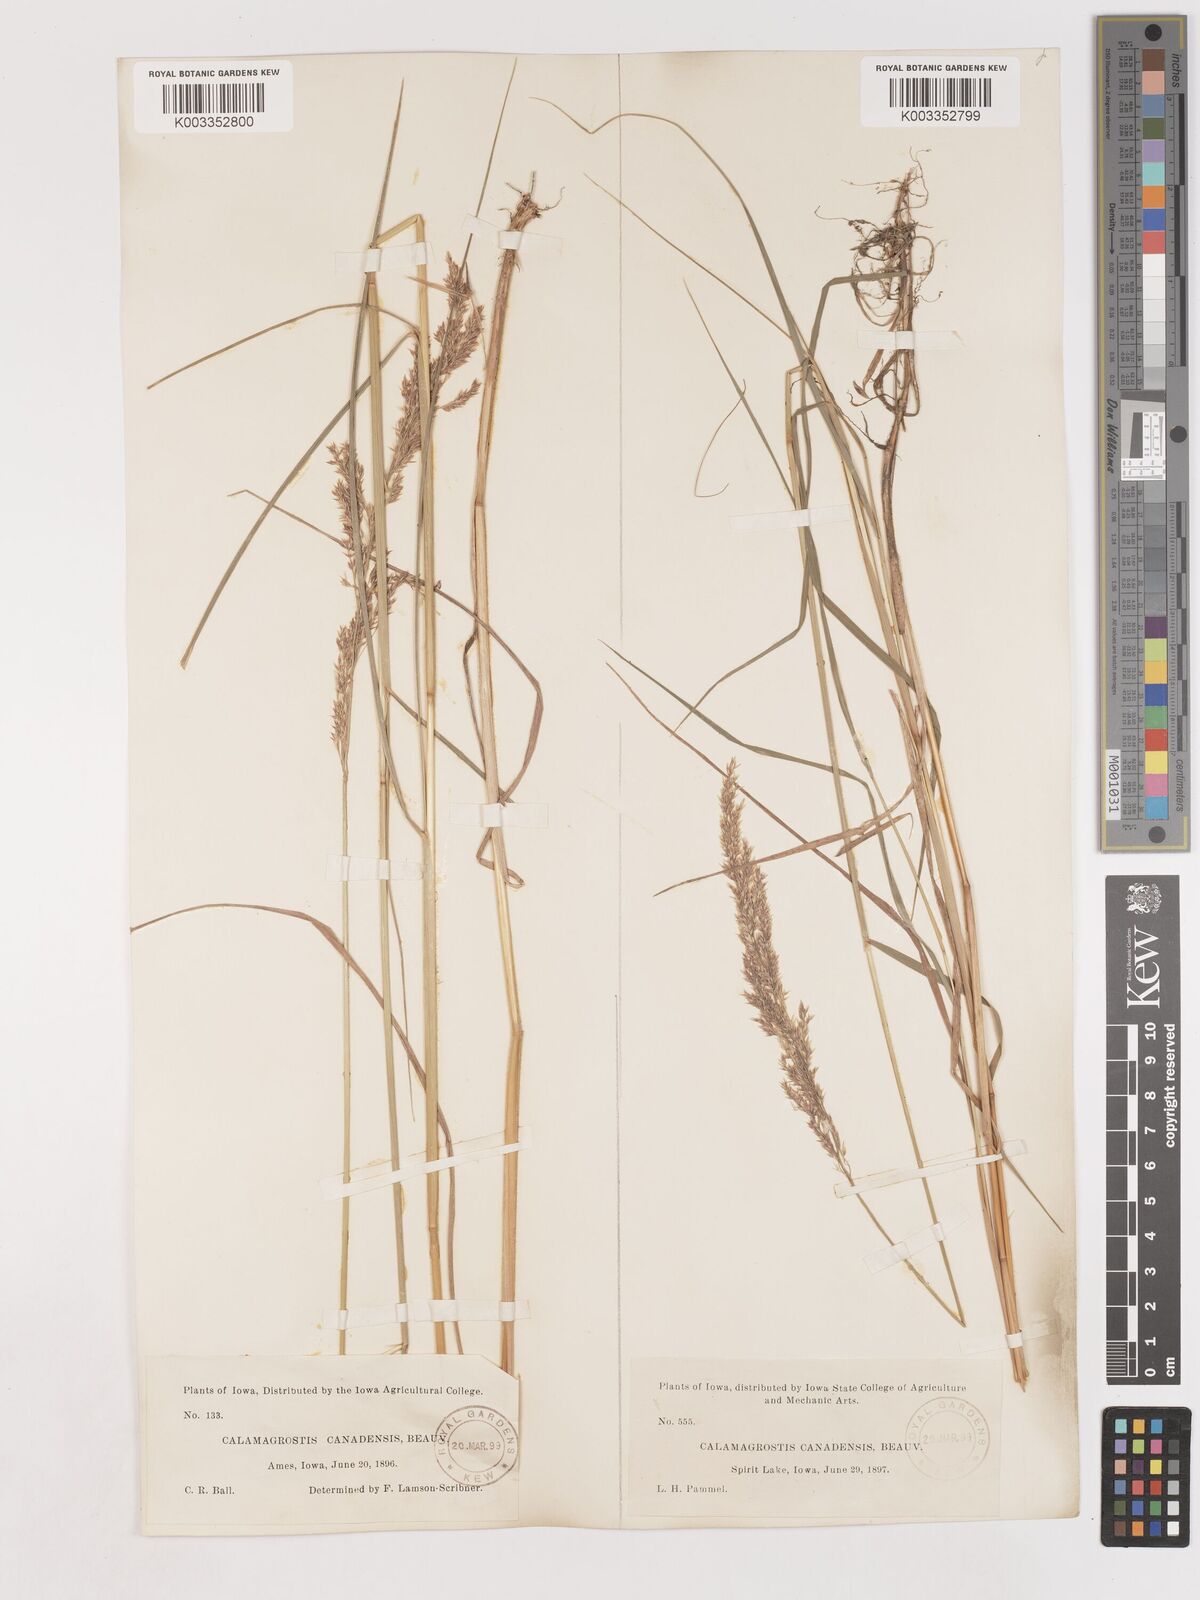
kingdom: Plantae
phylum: Tracheophyta
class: Liliopsida
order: Poales
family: Poaceae
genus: Calamagrostis
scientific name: Calamagrostis canadensis
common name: Canada bluejoint
